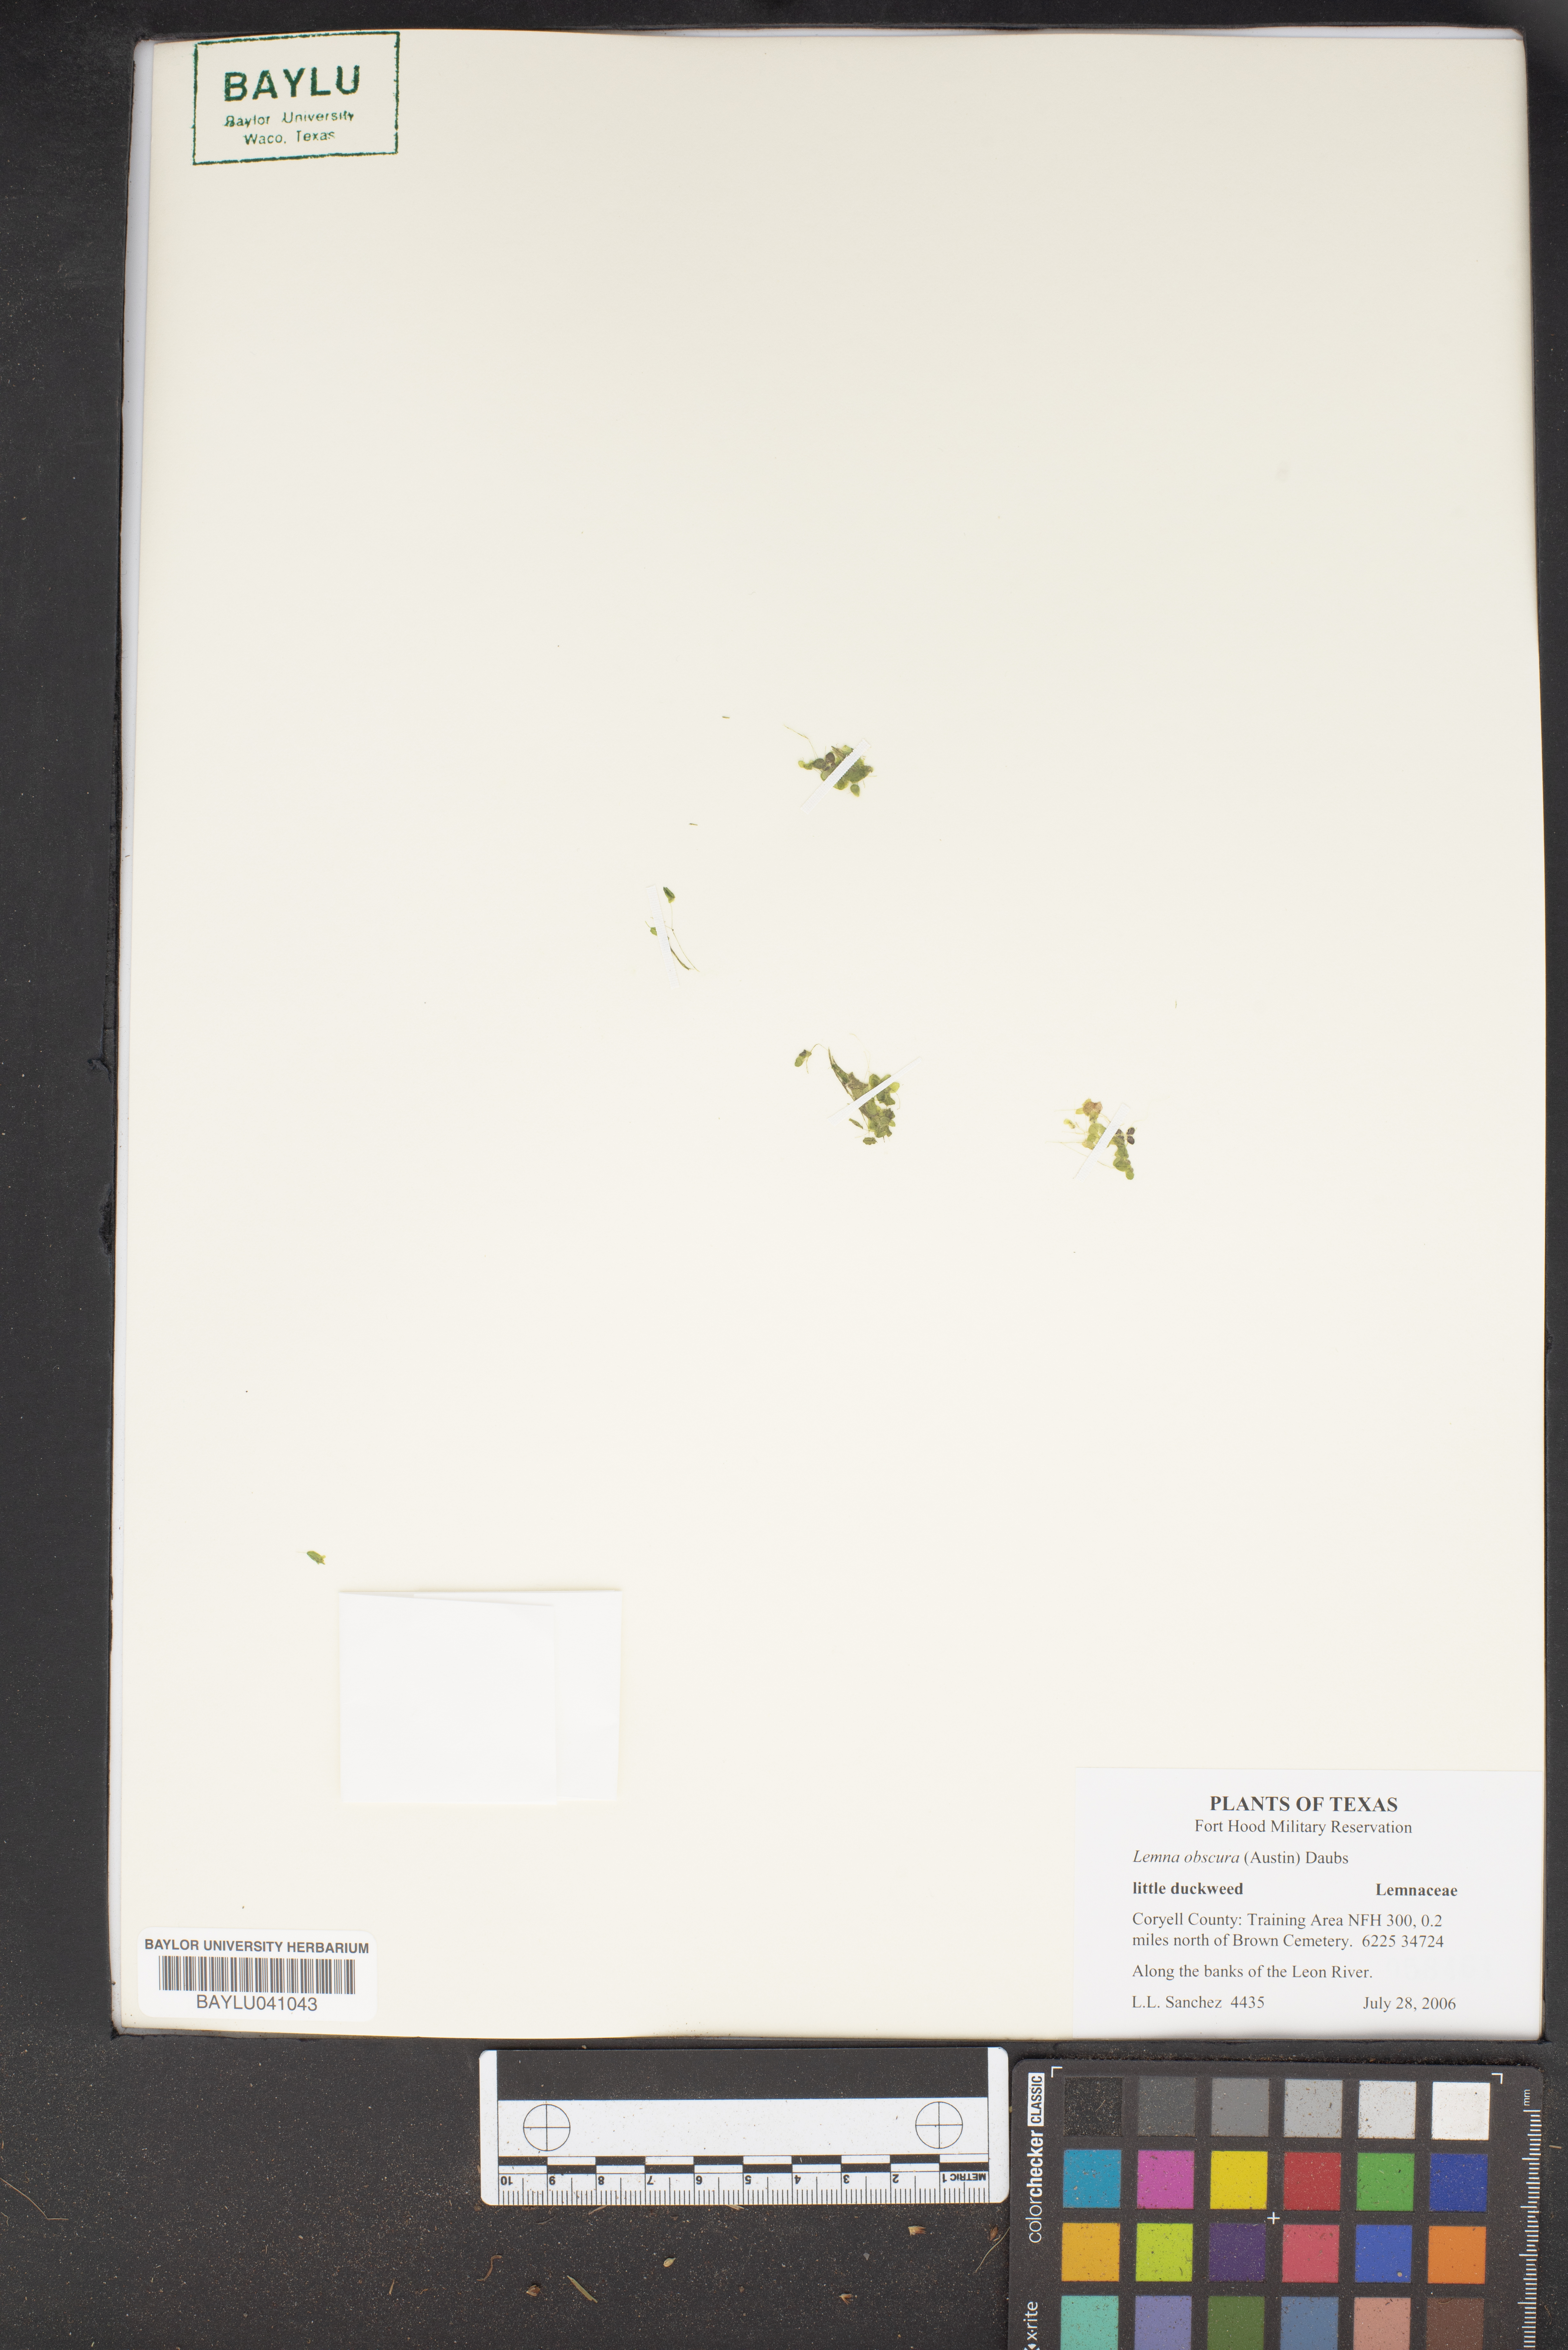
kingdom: Plantae
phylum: Tracheophyta
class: Liliopsida
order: Alismatales
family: Araceae
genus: Lemna
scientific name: Lemna obscura
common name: Little duckweed
